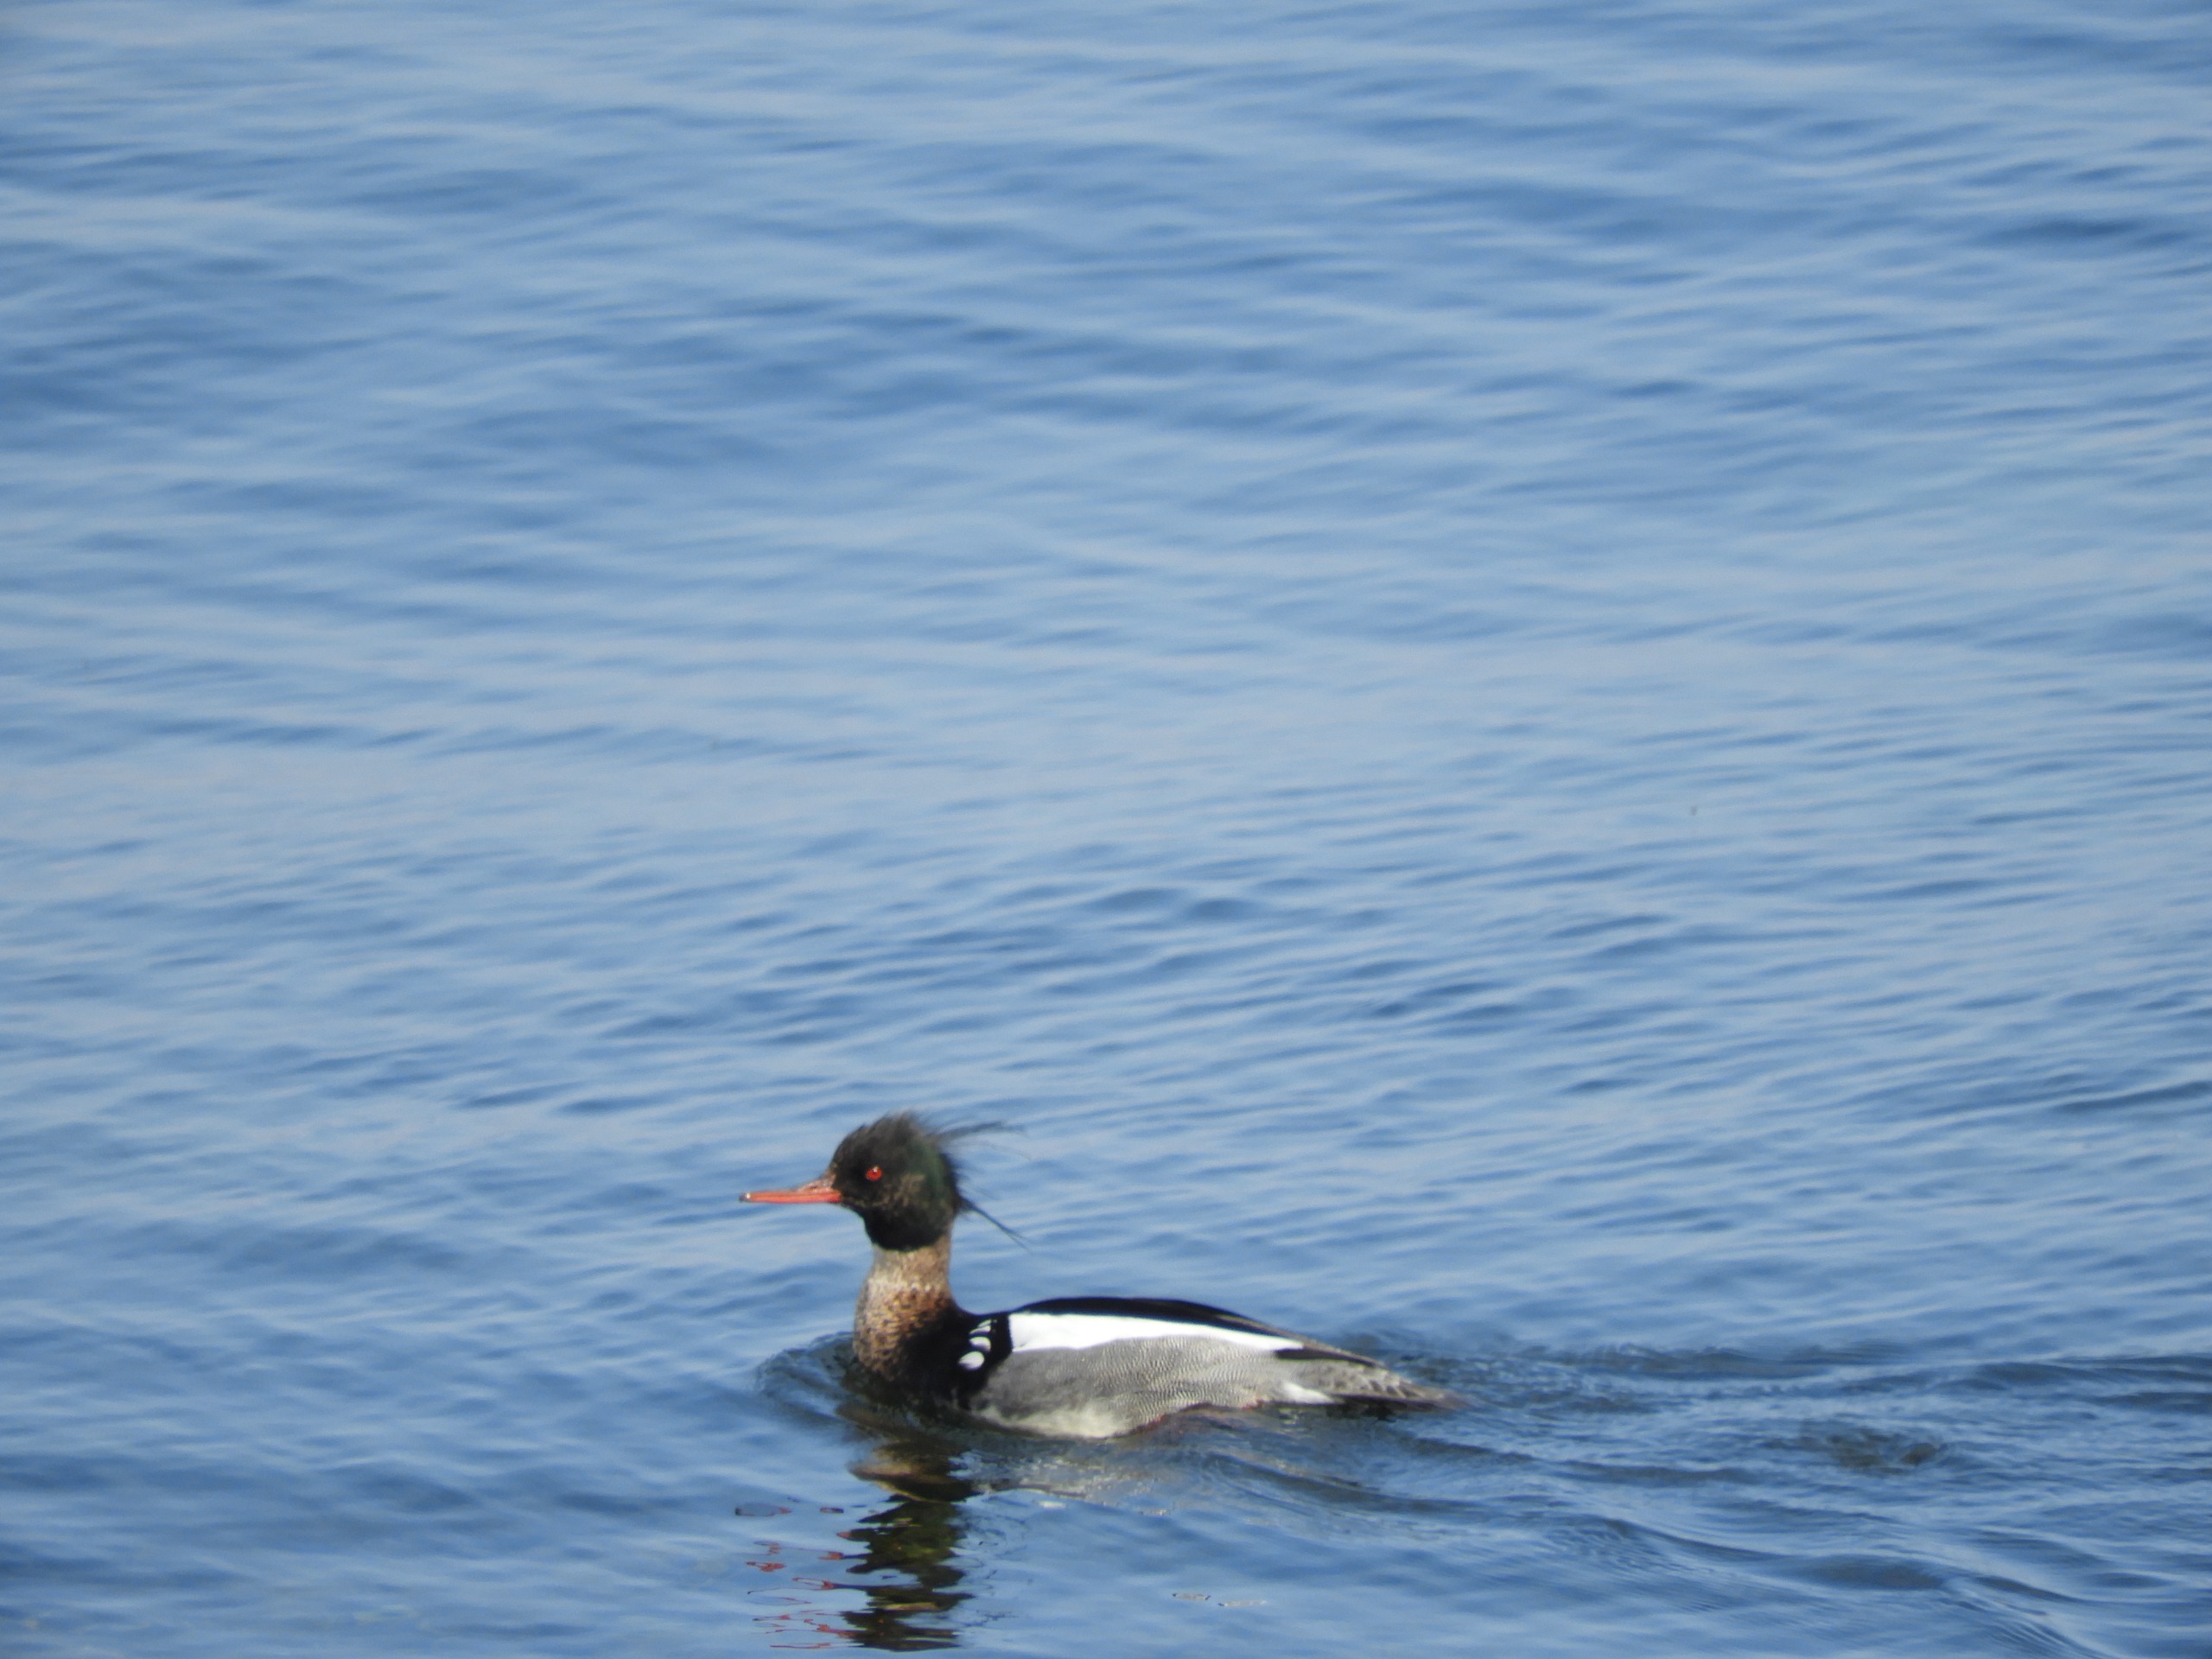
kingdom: Animalia
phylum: Chordata
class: Aves
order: Anseriformes
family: Anatidae
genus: Mergus
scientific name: Mergus serrator
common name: Toppet skallesluger
